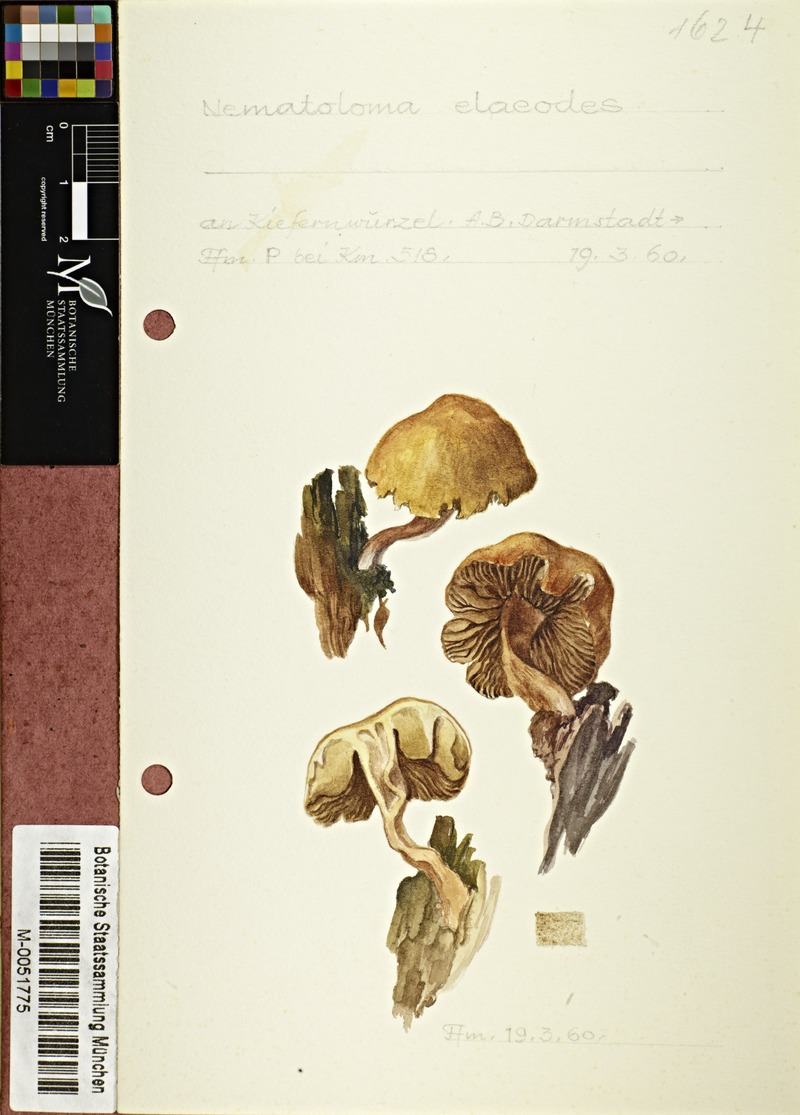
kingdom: Fungi
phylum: Basidiomycota
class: Agaricomycetes
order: Agaricales
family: Strophariaceae
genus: Hypholoma
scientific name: Hypholoma fasciculare
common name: Sulphur tuft
